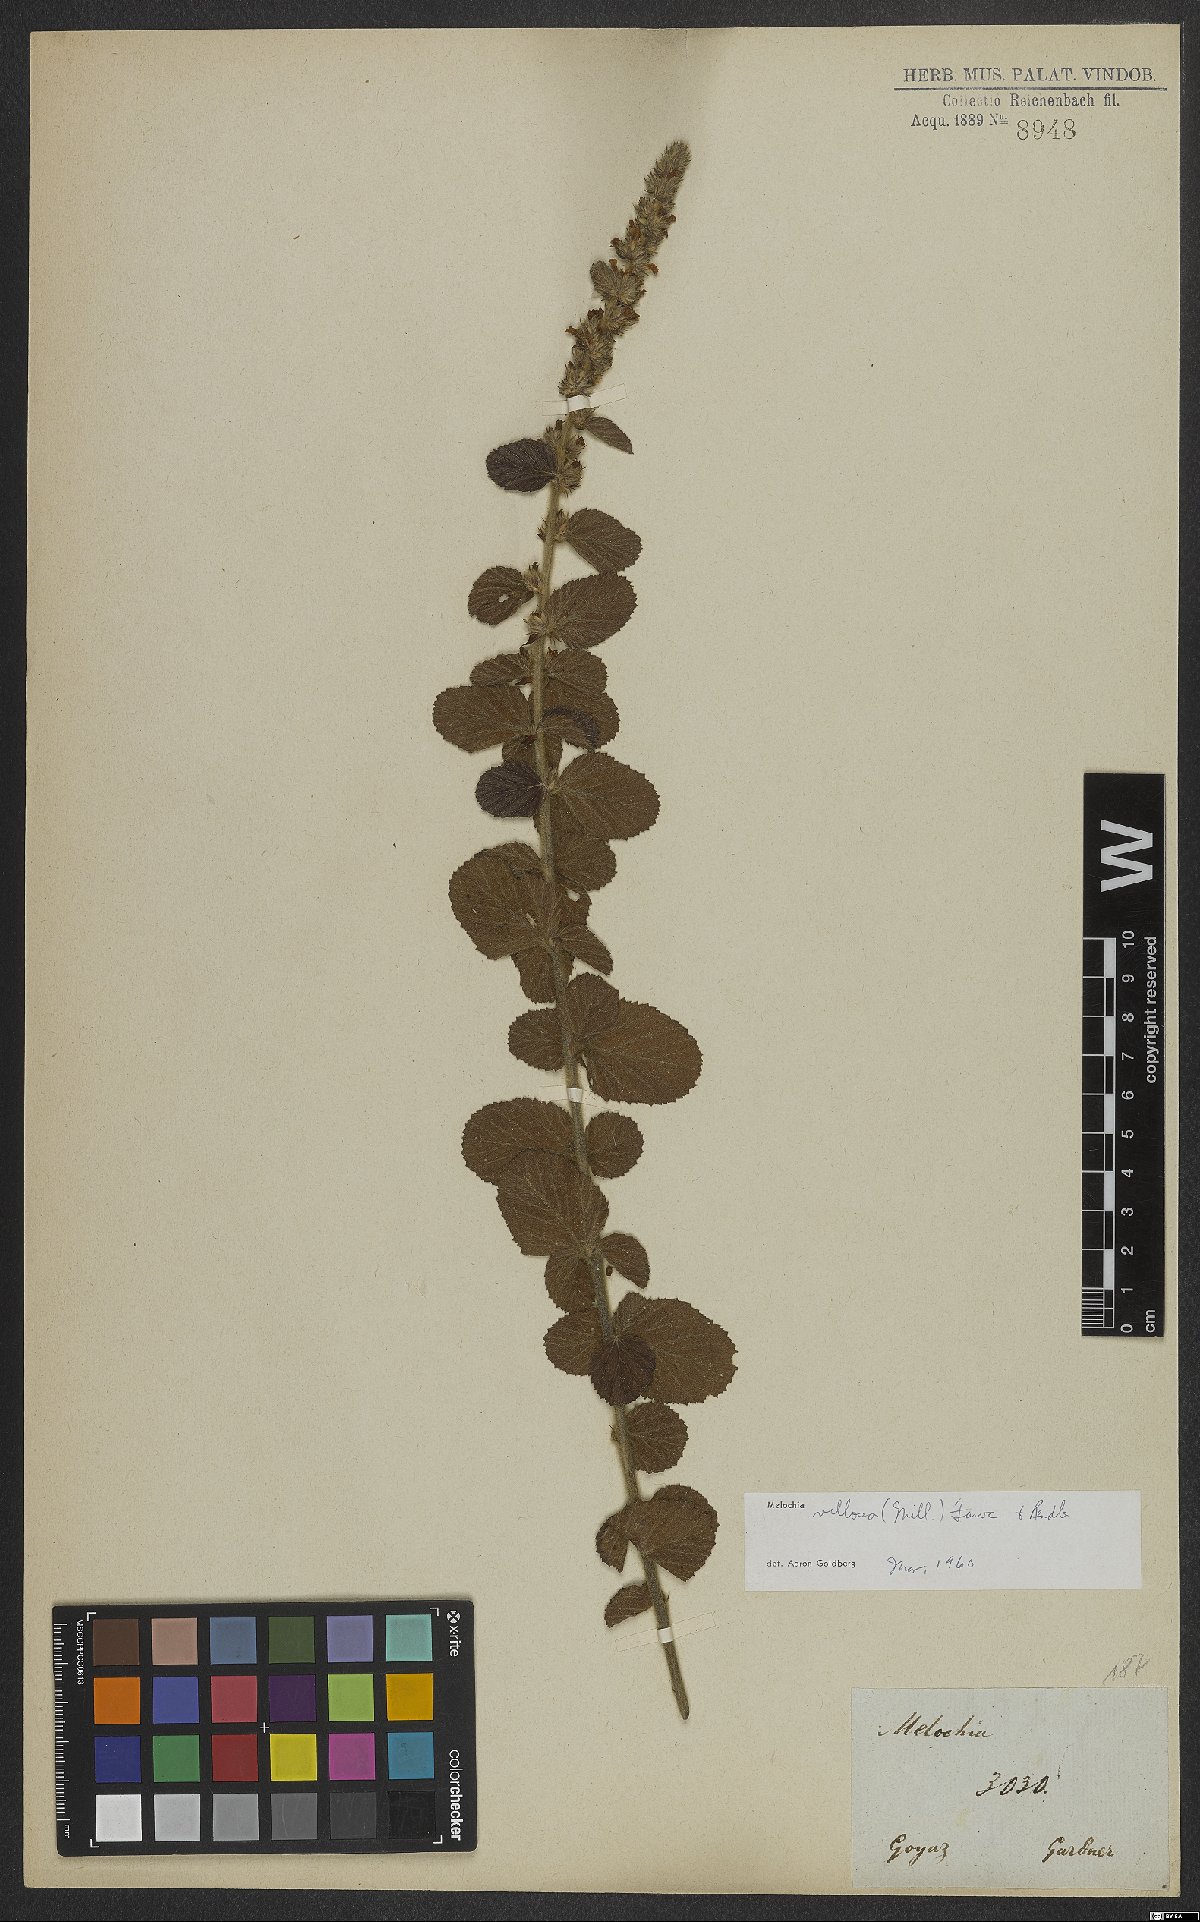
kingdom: Plantae
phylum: Tracheophyta
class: Magnoliopsida
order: Malvales
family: Malvaceae
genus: Melochia
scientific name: Melochia spicata
